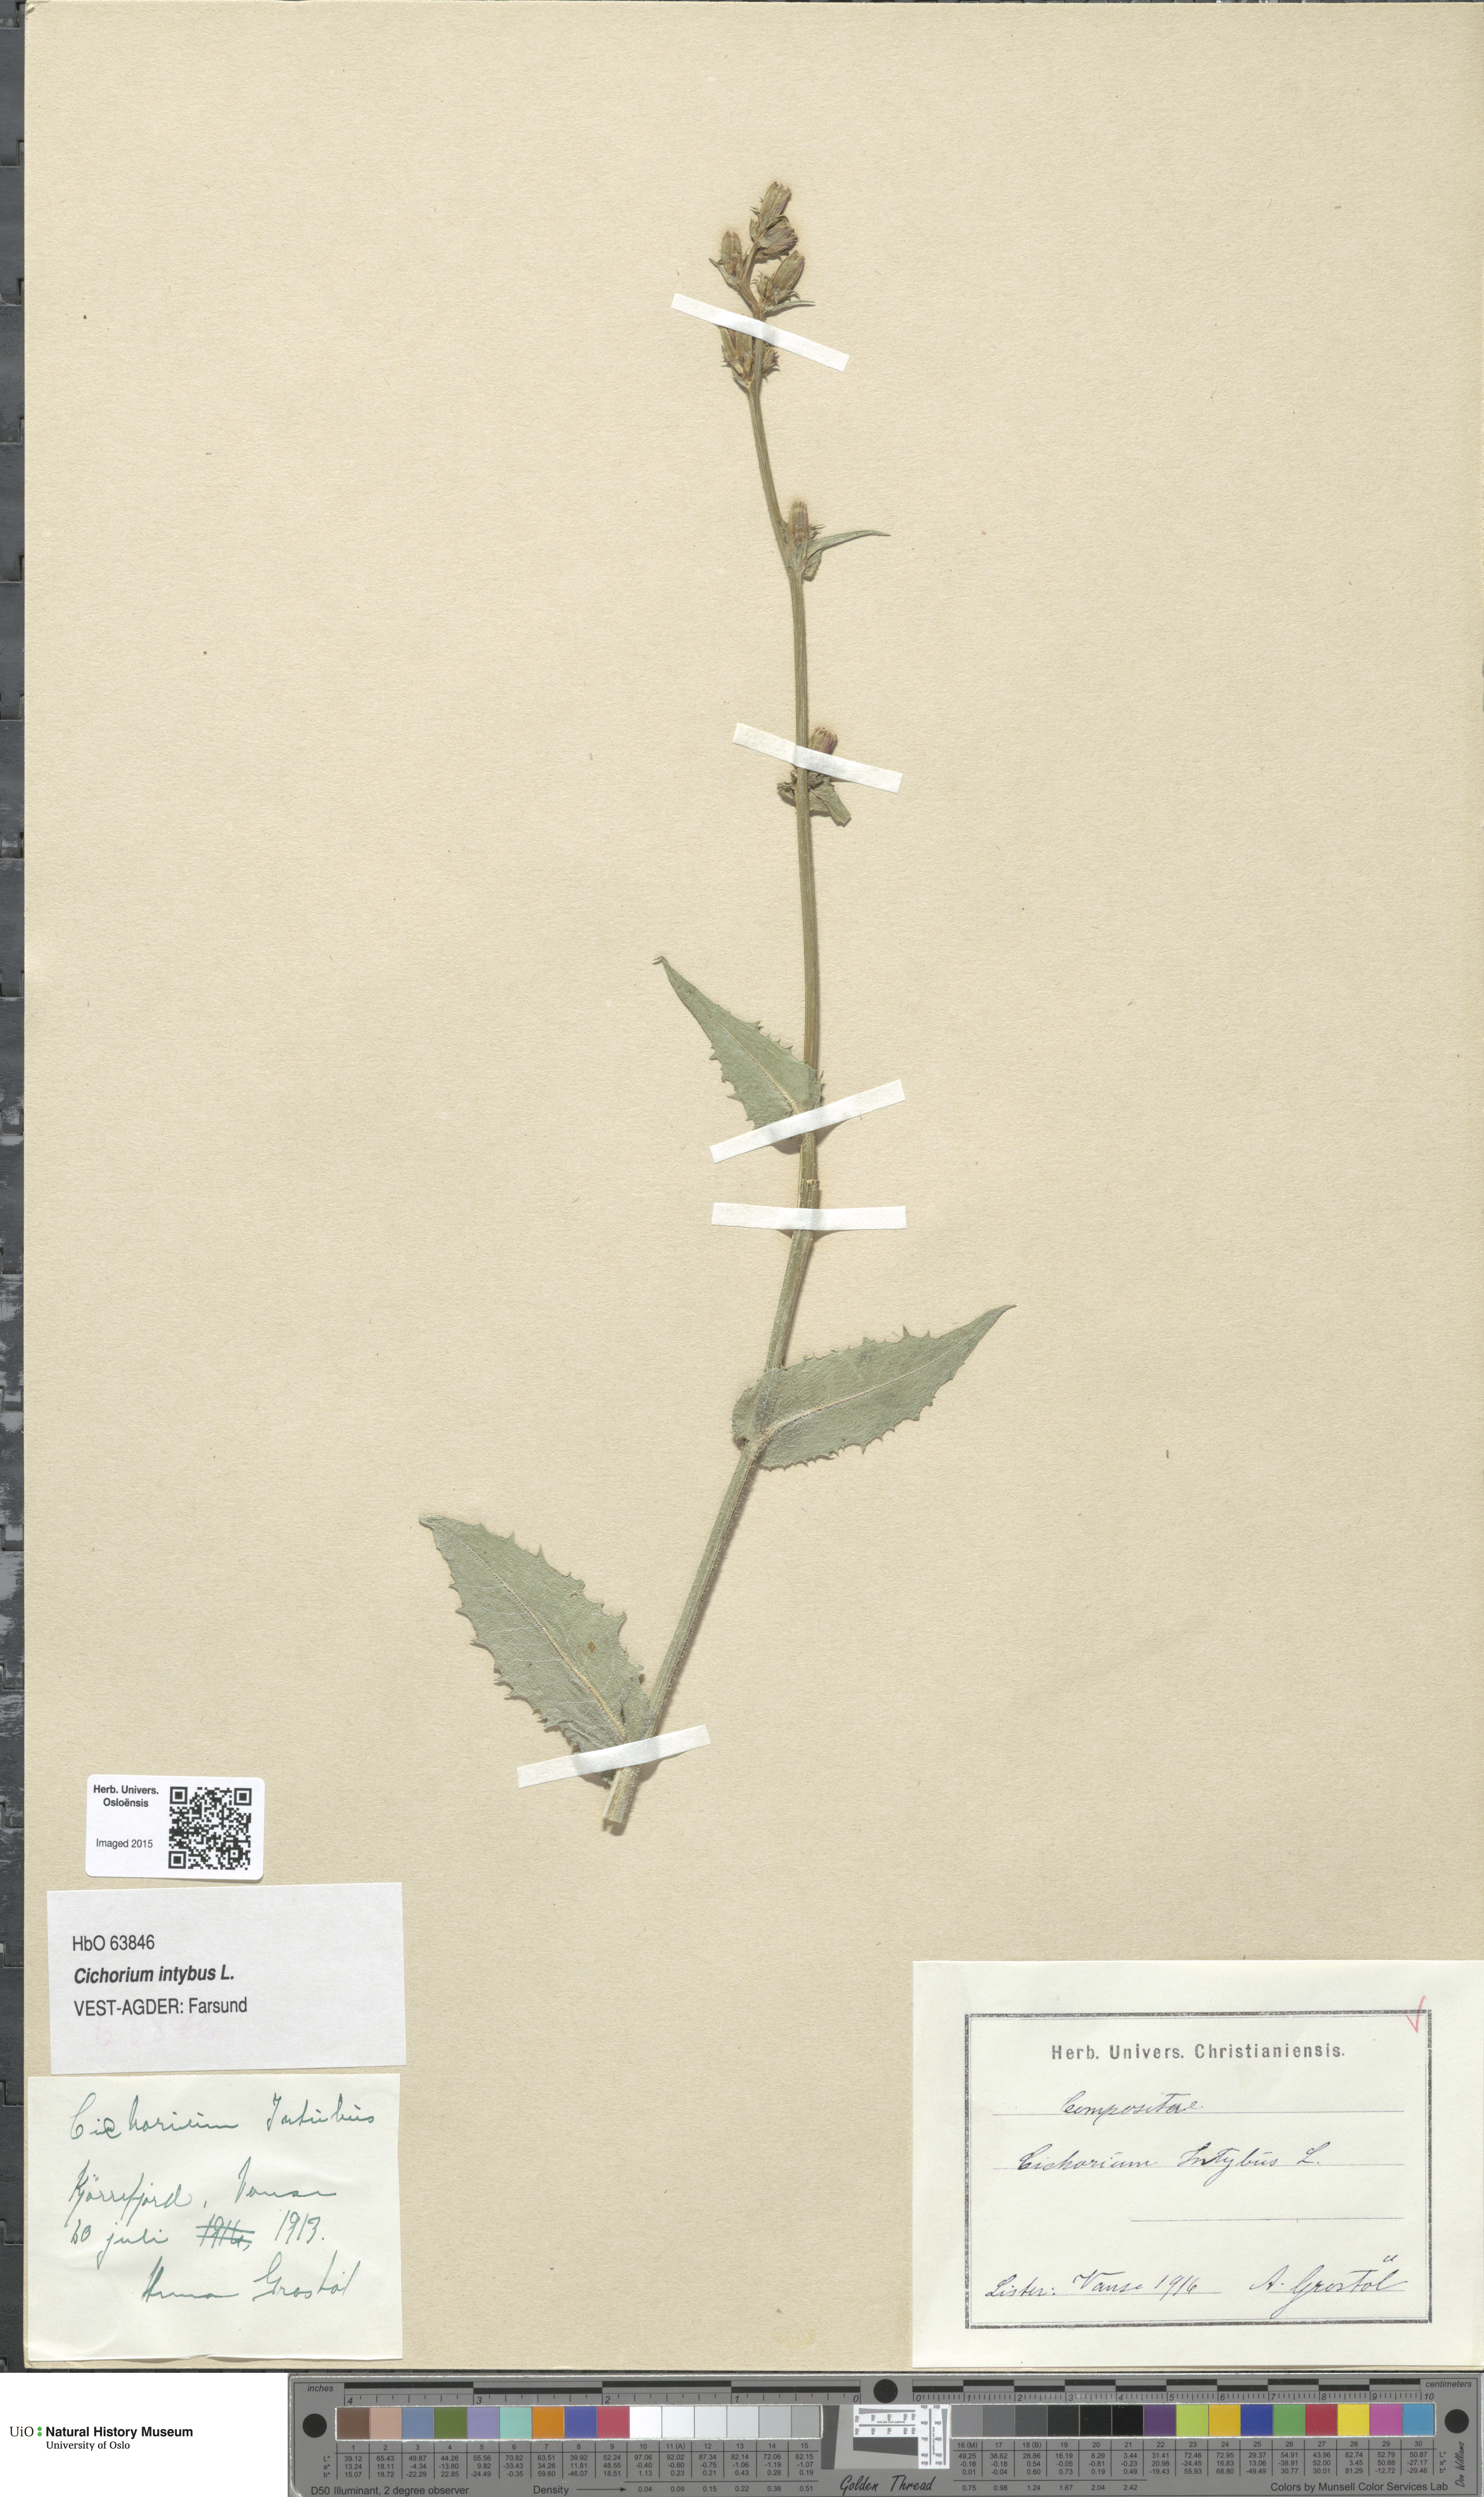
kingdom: Plantae
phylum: Tracheophyta
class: Magnoliopsida
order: Asterales
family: Asteraceae
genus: Cichorium
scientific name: Cichorium intybus
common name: Chicory
